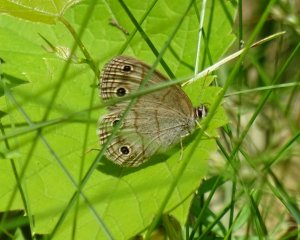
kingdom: Animalia
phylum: Arthropoda
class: Insecta
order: Lepidoptera
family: Nymphalidae
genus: Euptychia
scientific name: Euptychia cymela
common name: Little Wood Satyr
